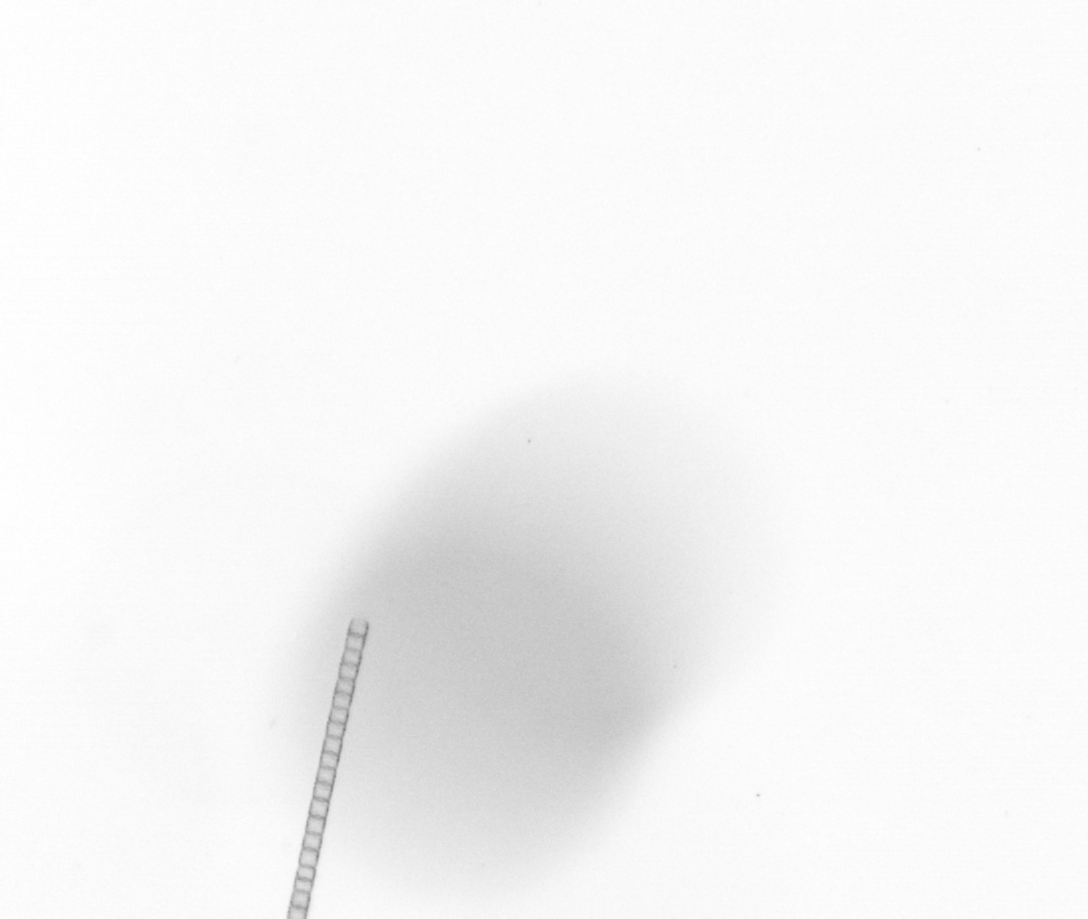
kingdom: Chromista
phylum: Ochrophyta
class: Bacillariophyceae
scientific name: Bacillariophyceae
